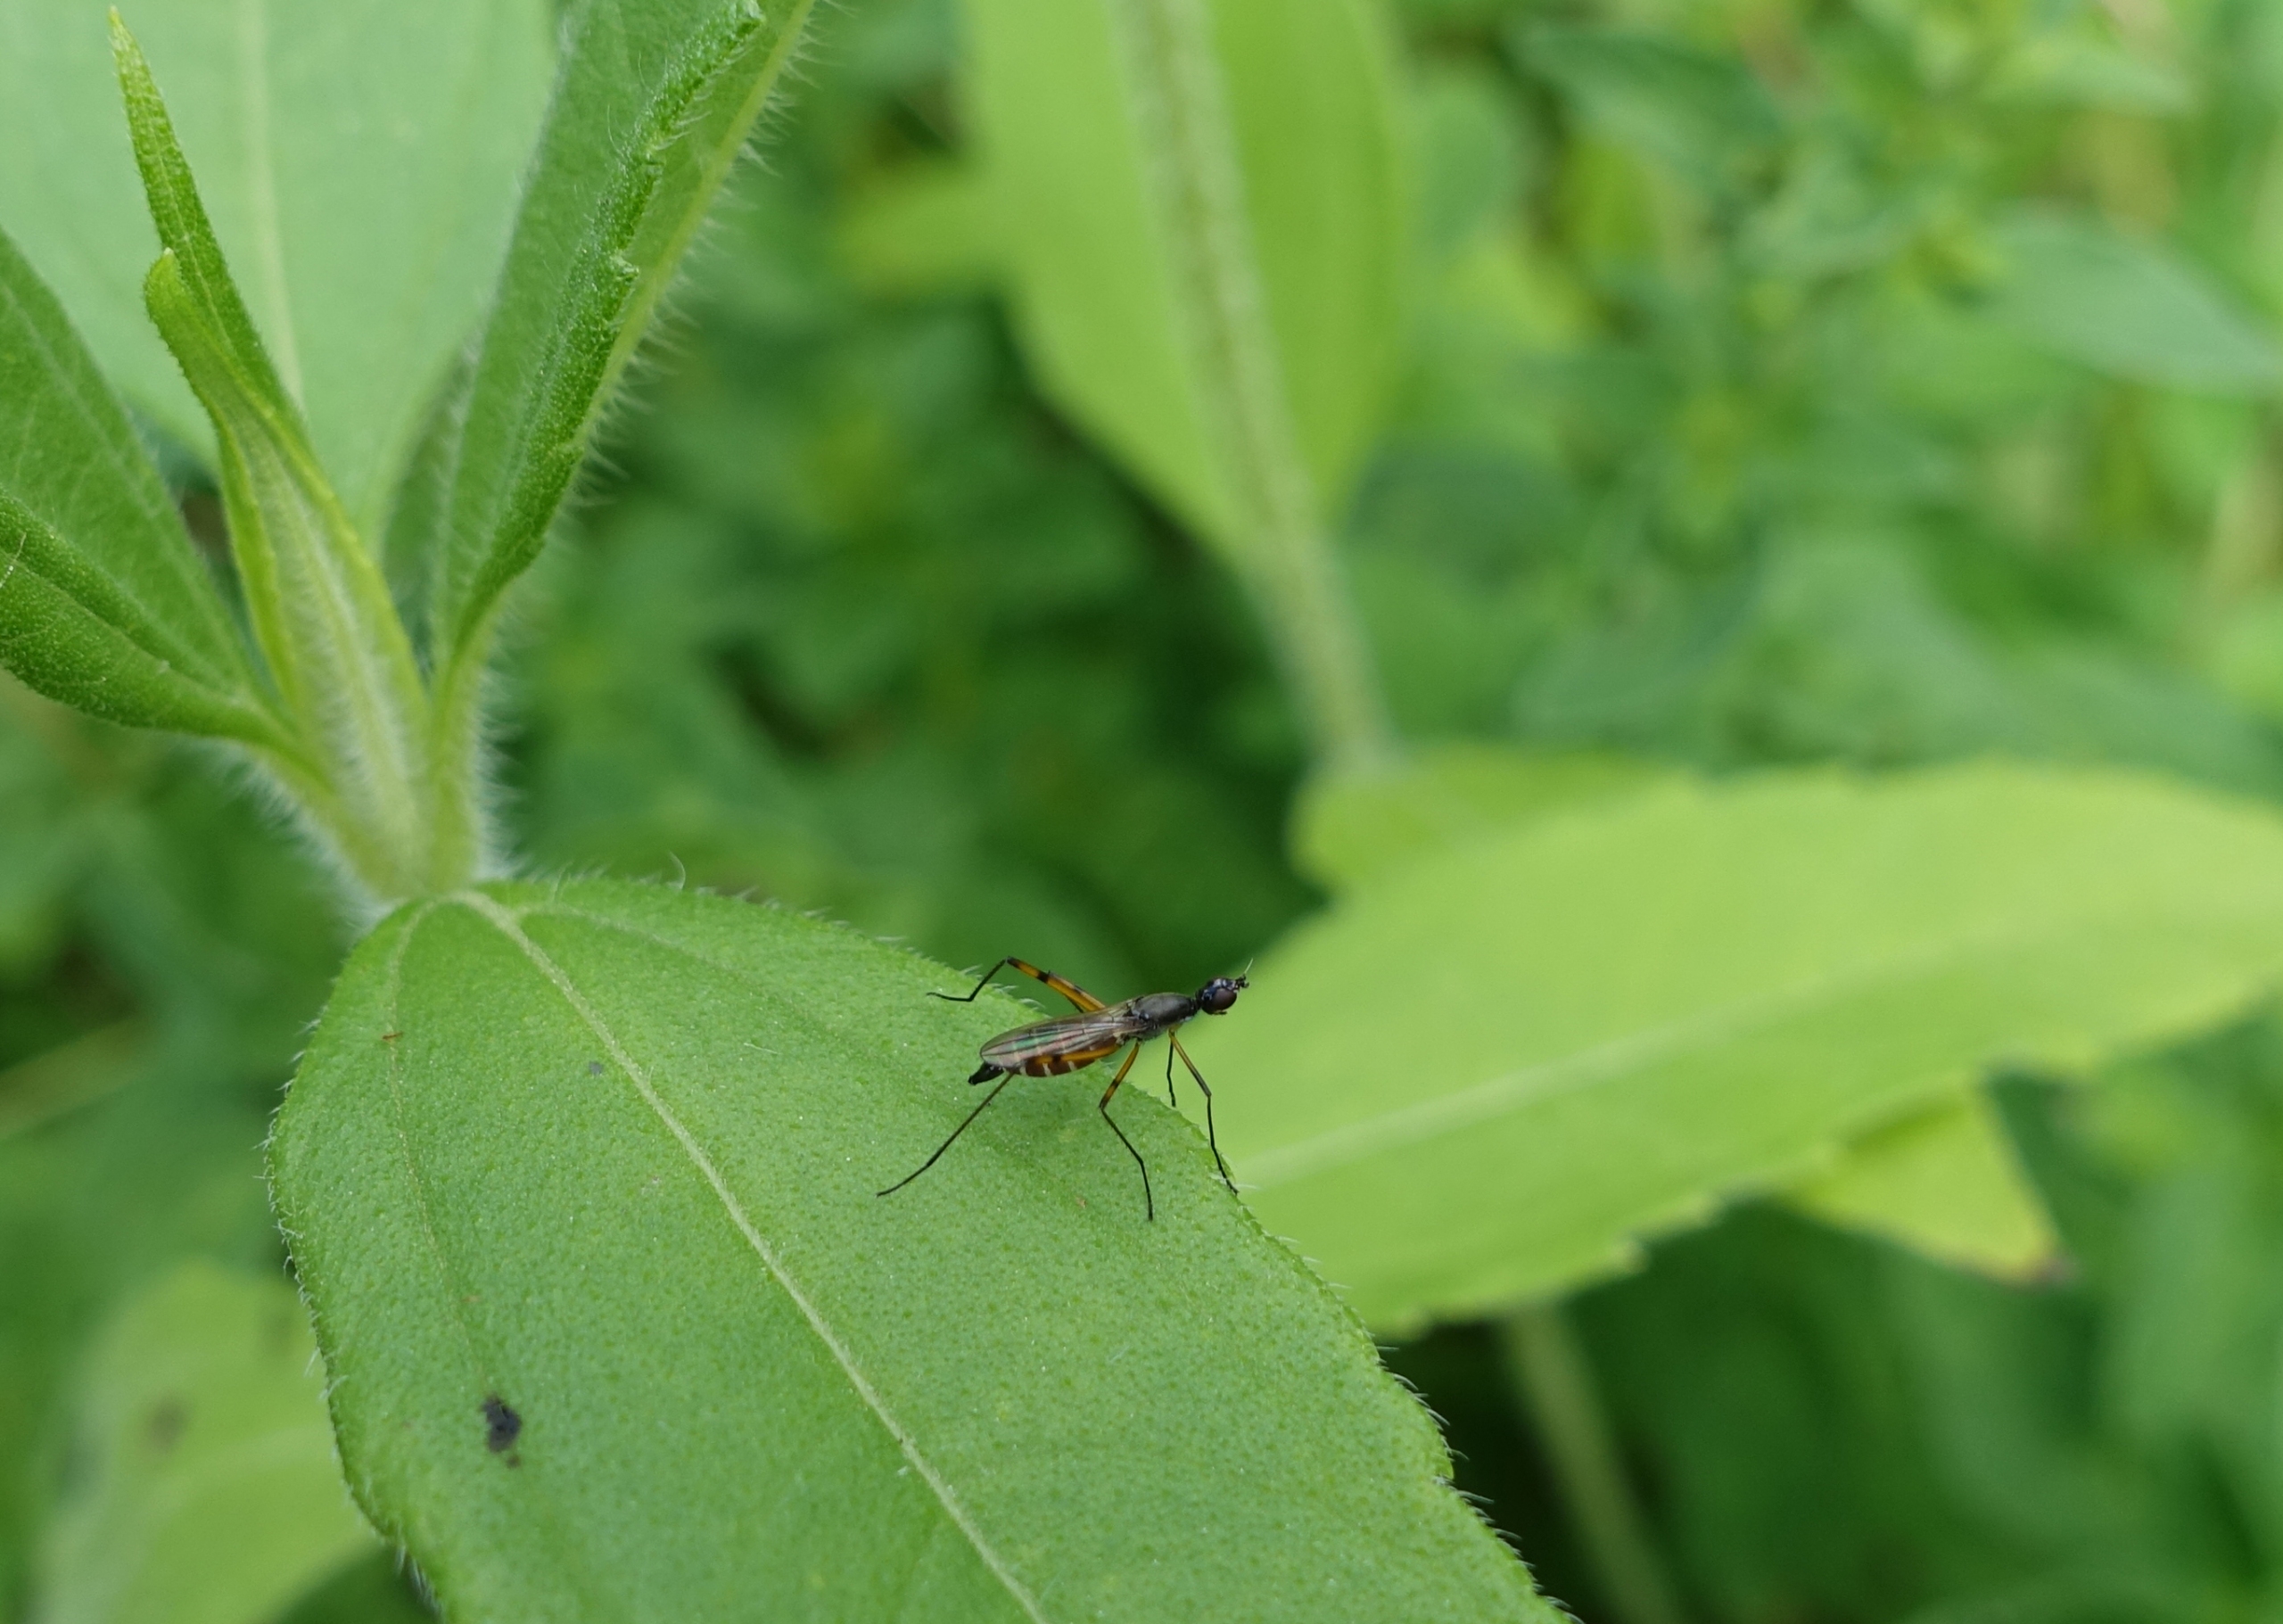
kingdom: Animalia
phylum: Arthropoda
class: Insecta
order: Diptera
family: Micropezidae
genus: Micropeza
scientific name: Micropeza corrigiolata
